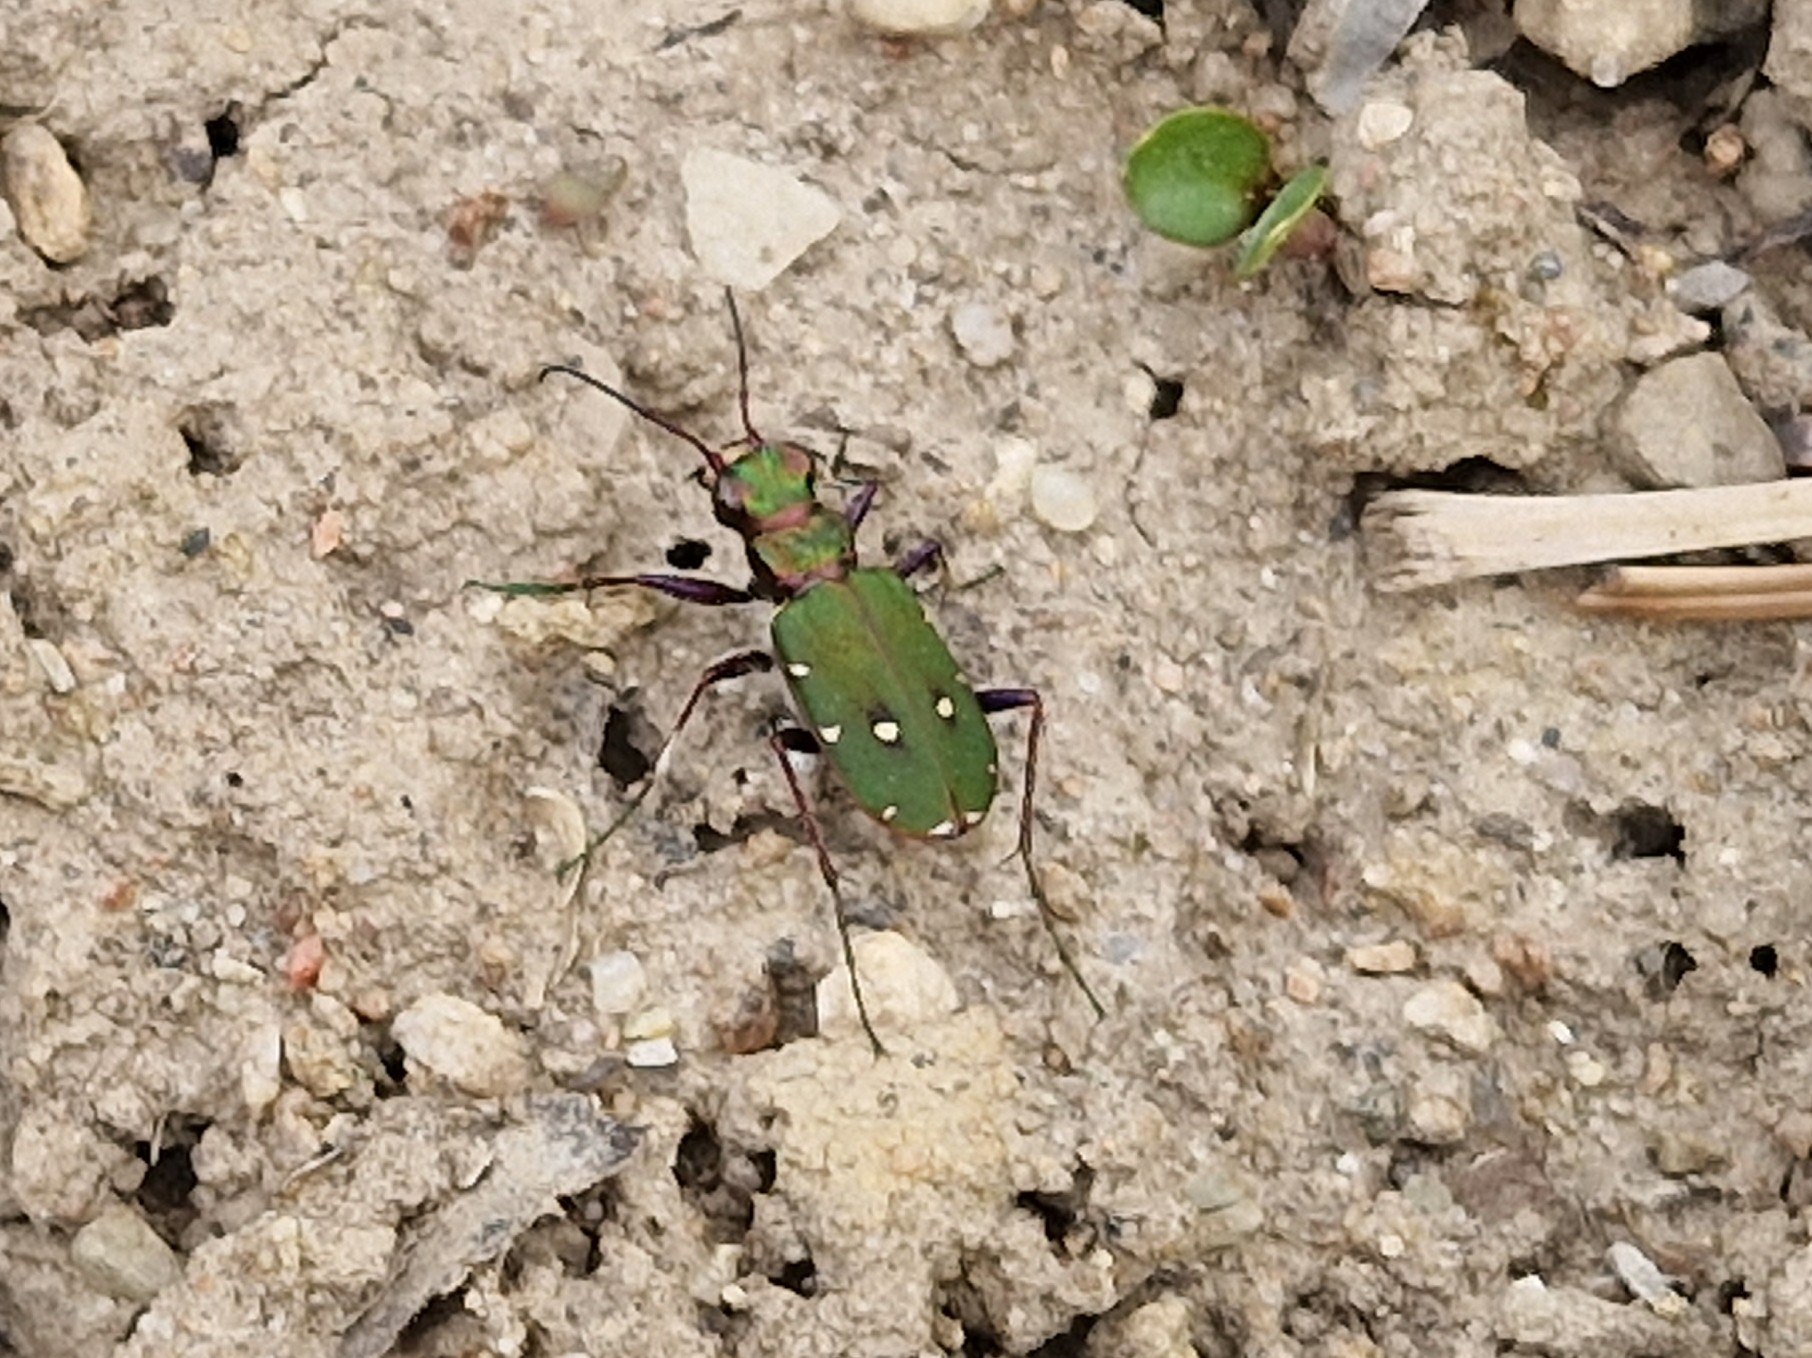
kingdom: Animalia
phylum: Arthropoda
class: Insecta
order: Coleoptera
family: Carabidae
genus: Cicindela
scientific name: Cicindela campestris
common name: Grøn sandspringer
